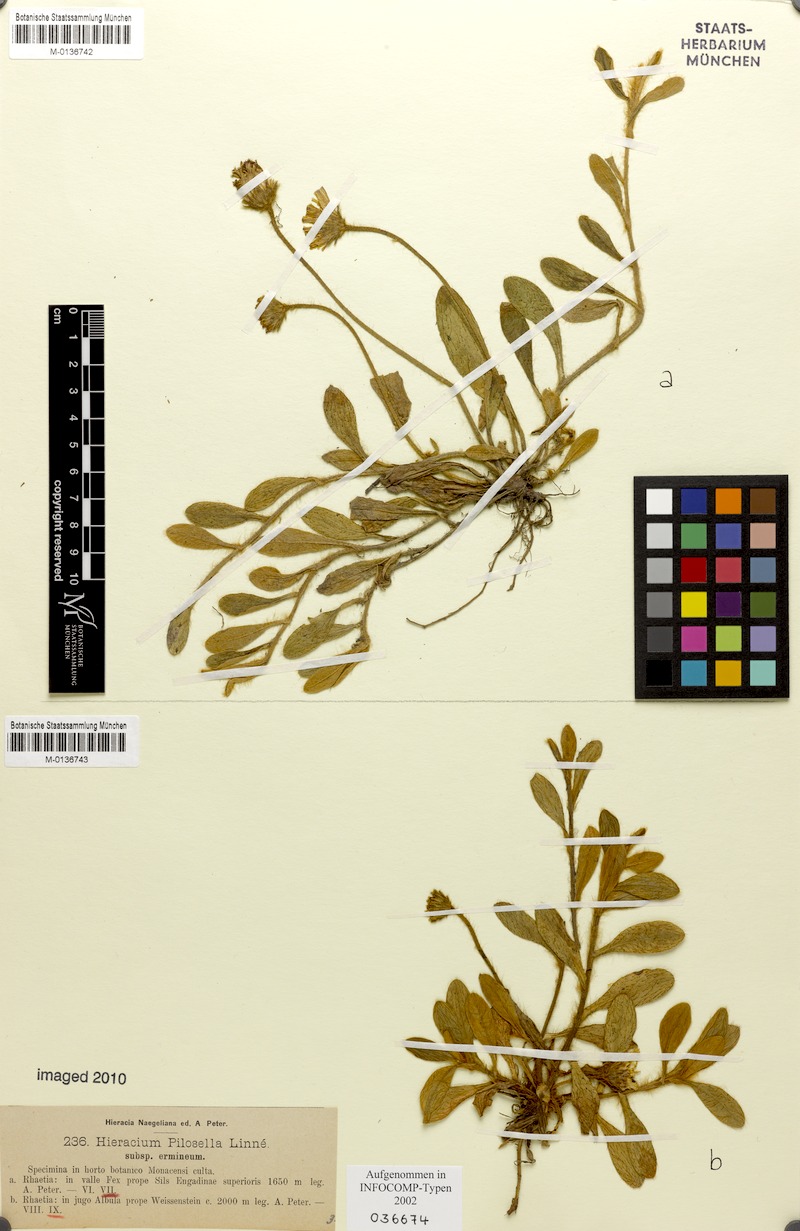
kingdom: Plantae
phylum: Tracheophyta
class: Magnoliopsida
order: Asterales
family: Asteraceae
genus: Pilosella
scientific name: Pilosella officinarum
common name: Mouse-ear hawkweed
